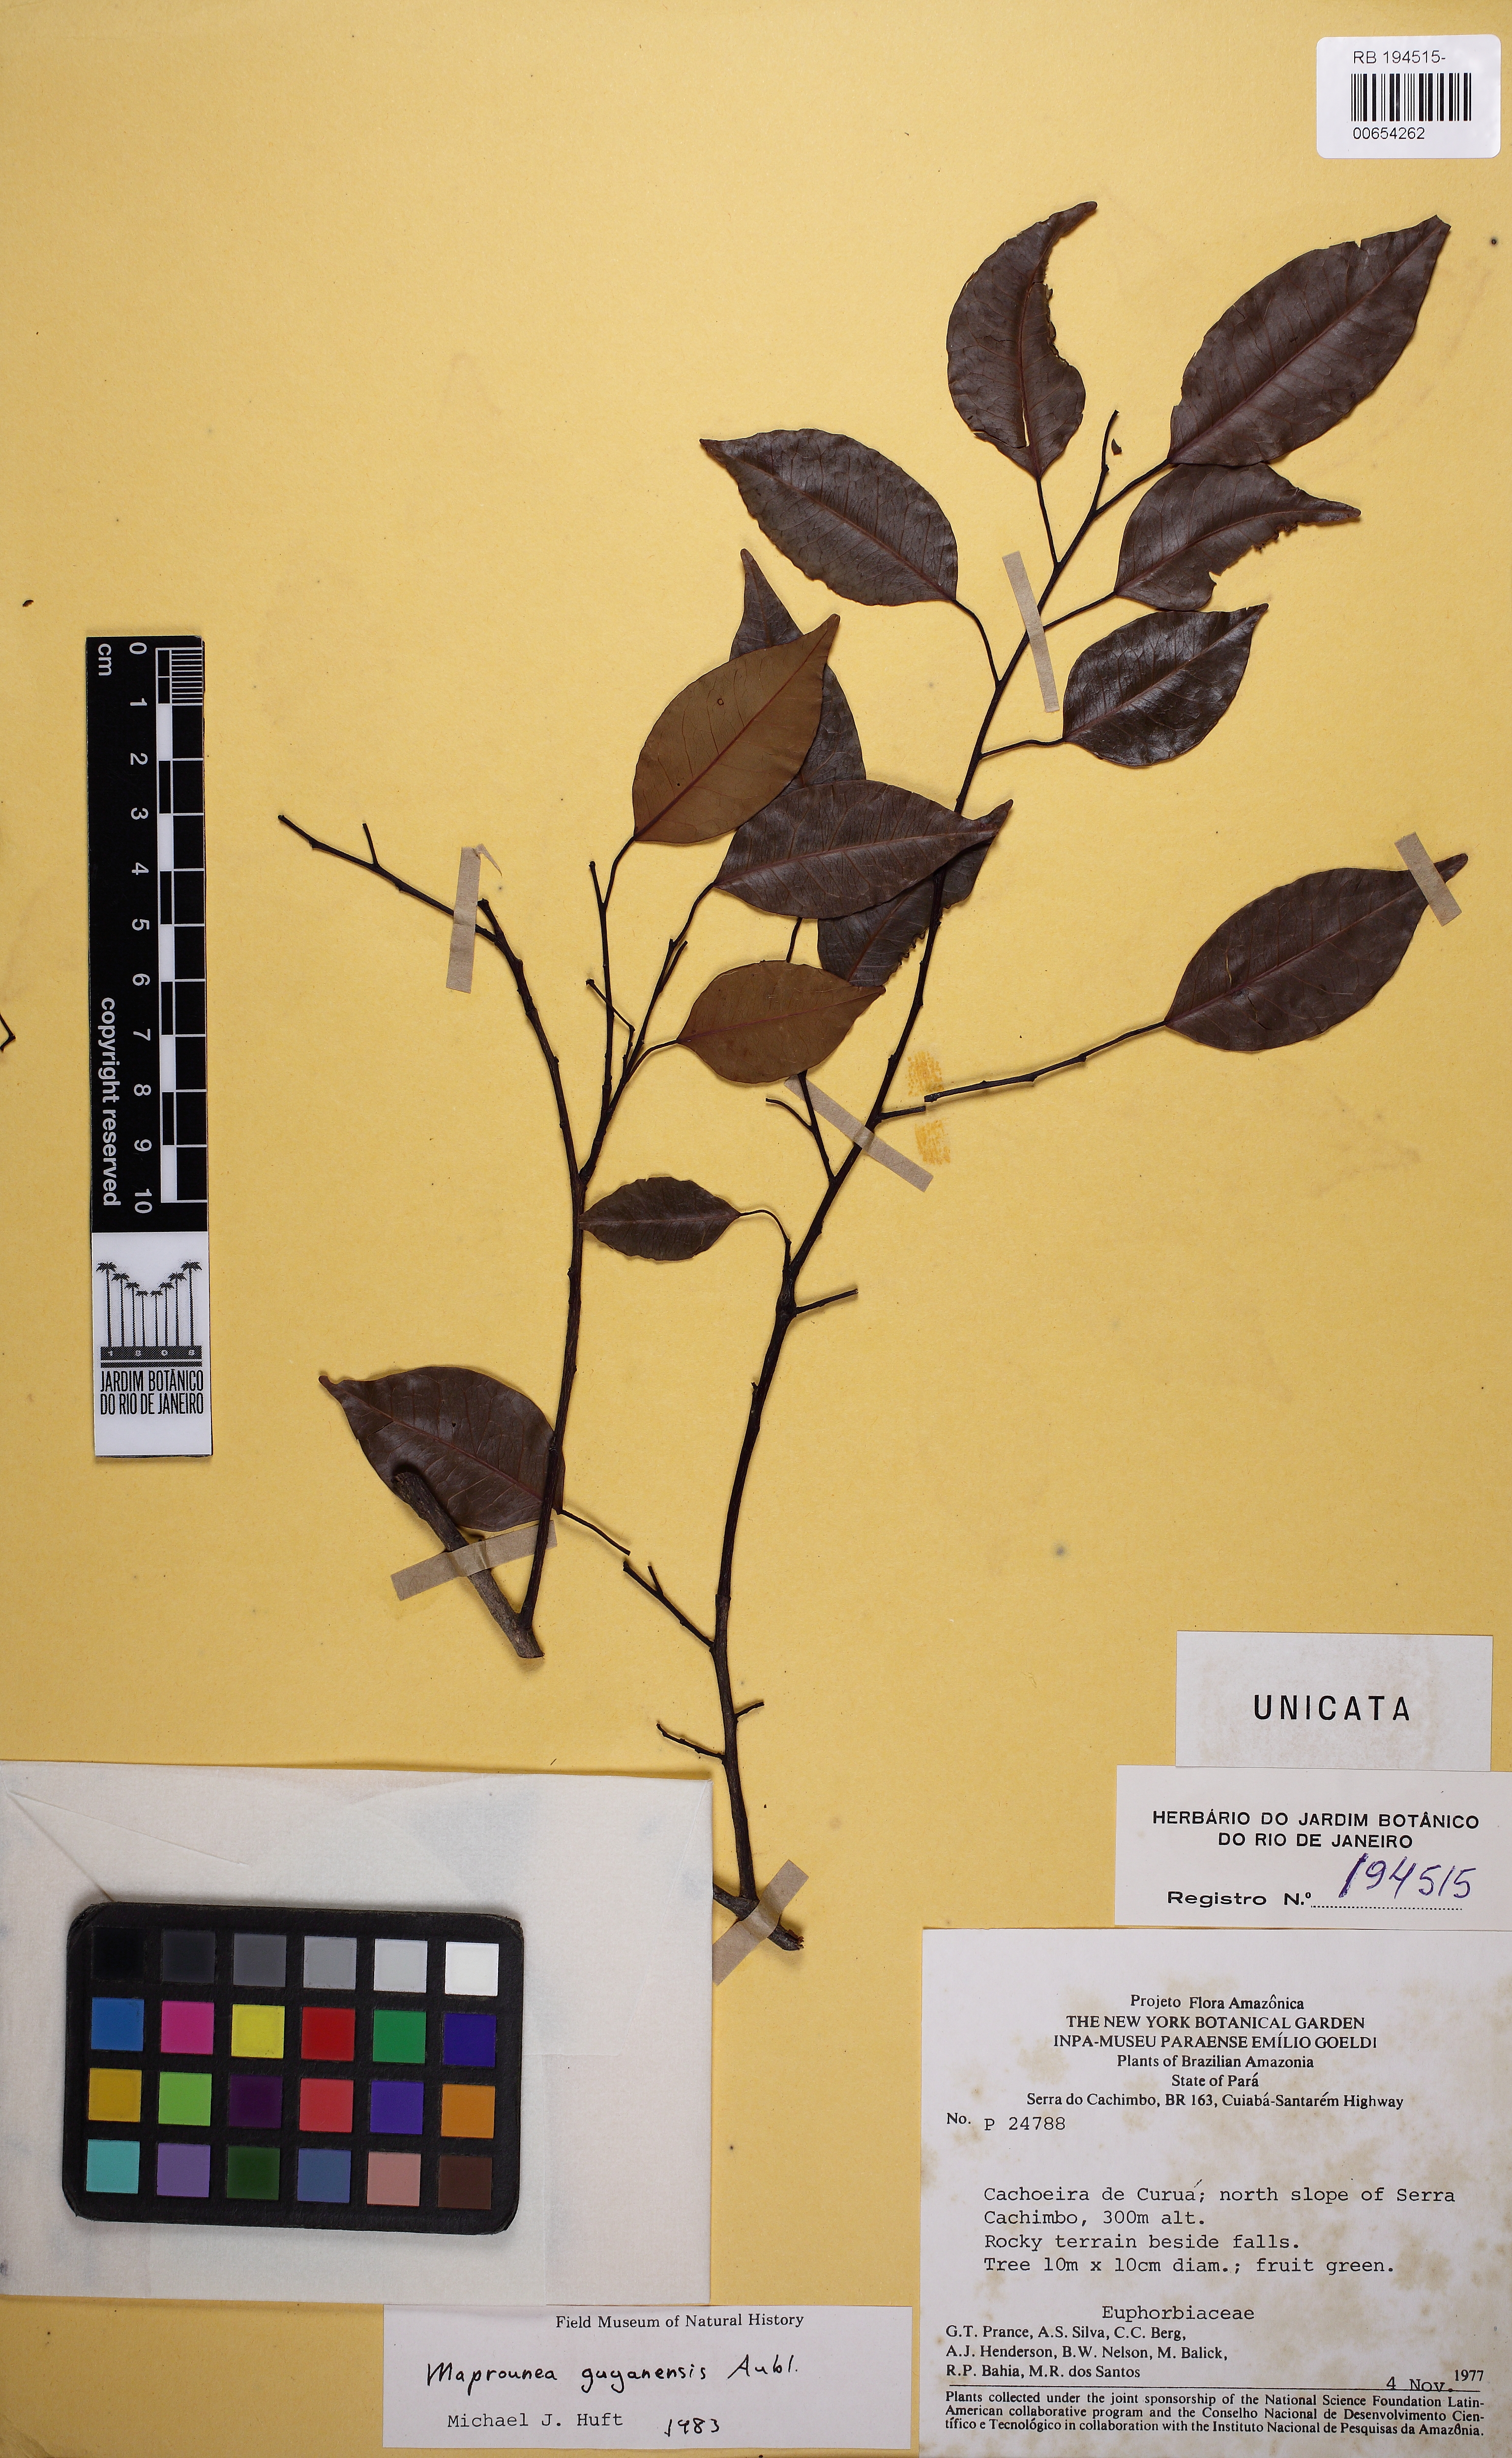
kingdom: Plantae
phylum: Tracheophyta
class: Magnoliopsida
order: Malpighiales
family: Euphorbiaceae
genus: Maprounea
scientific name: Maprounea guianensis
